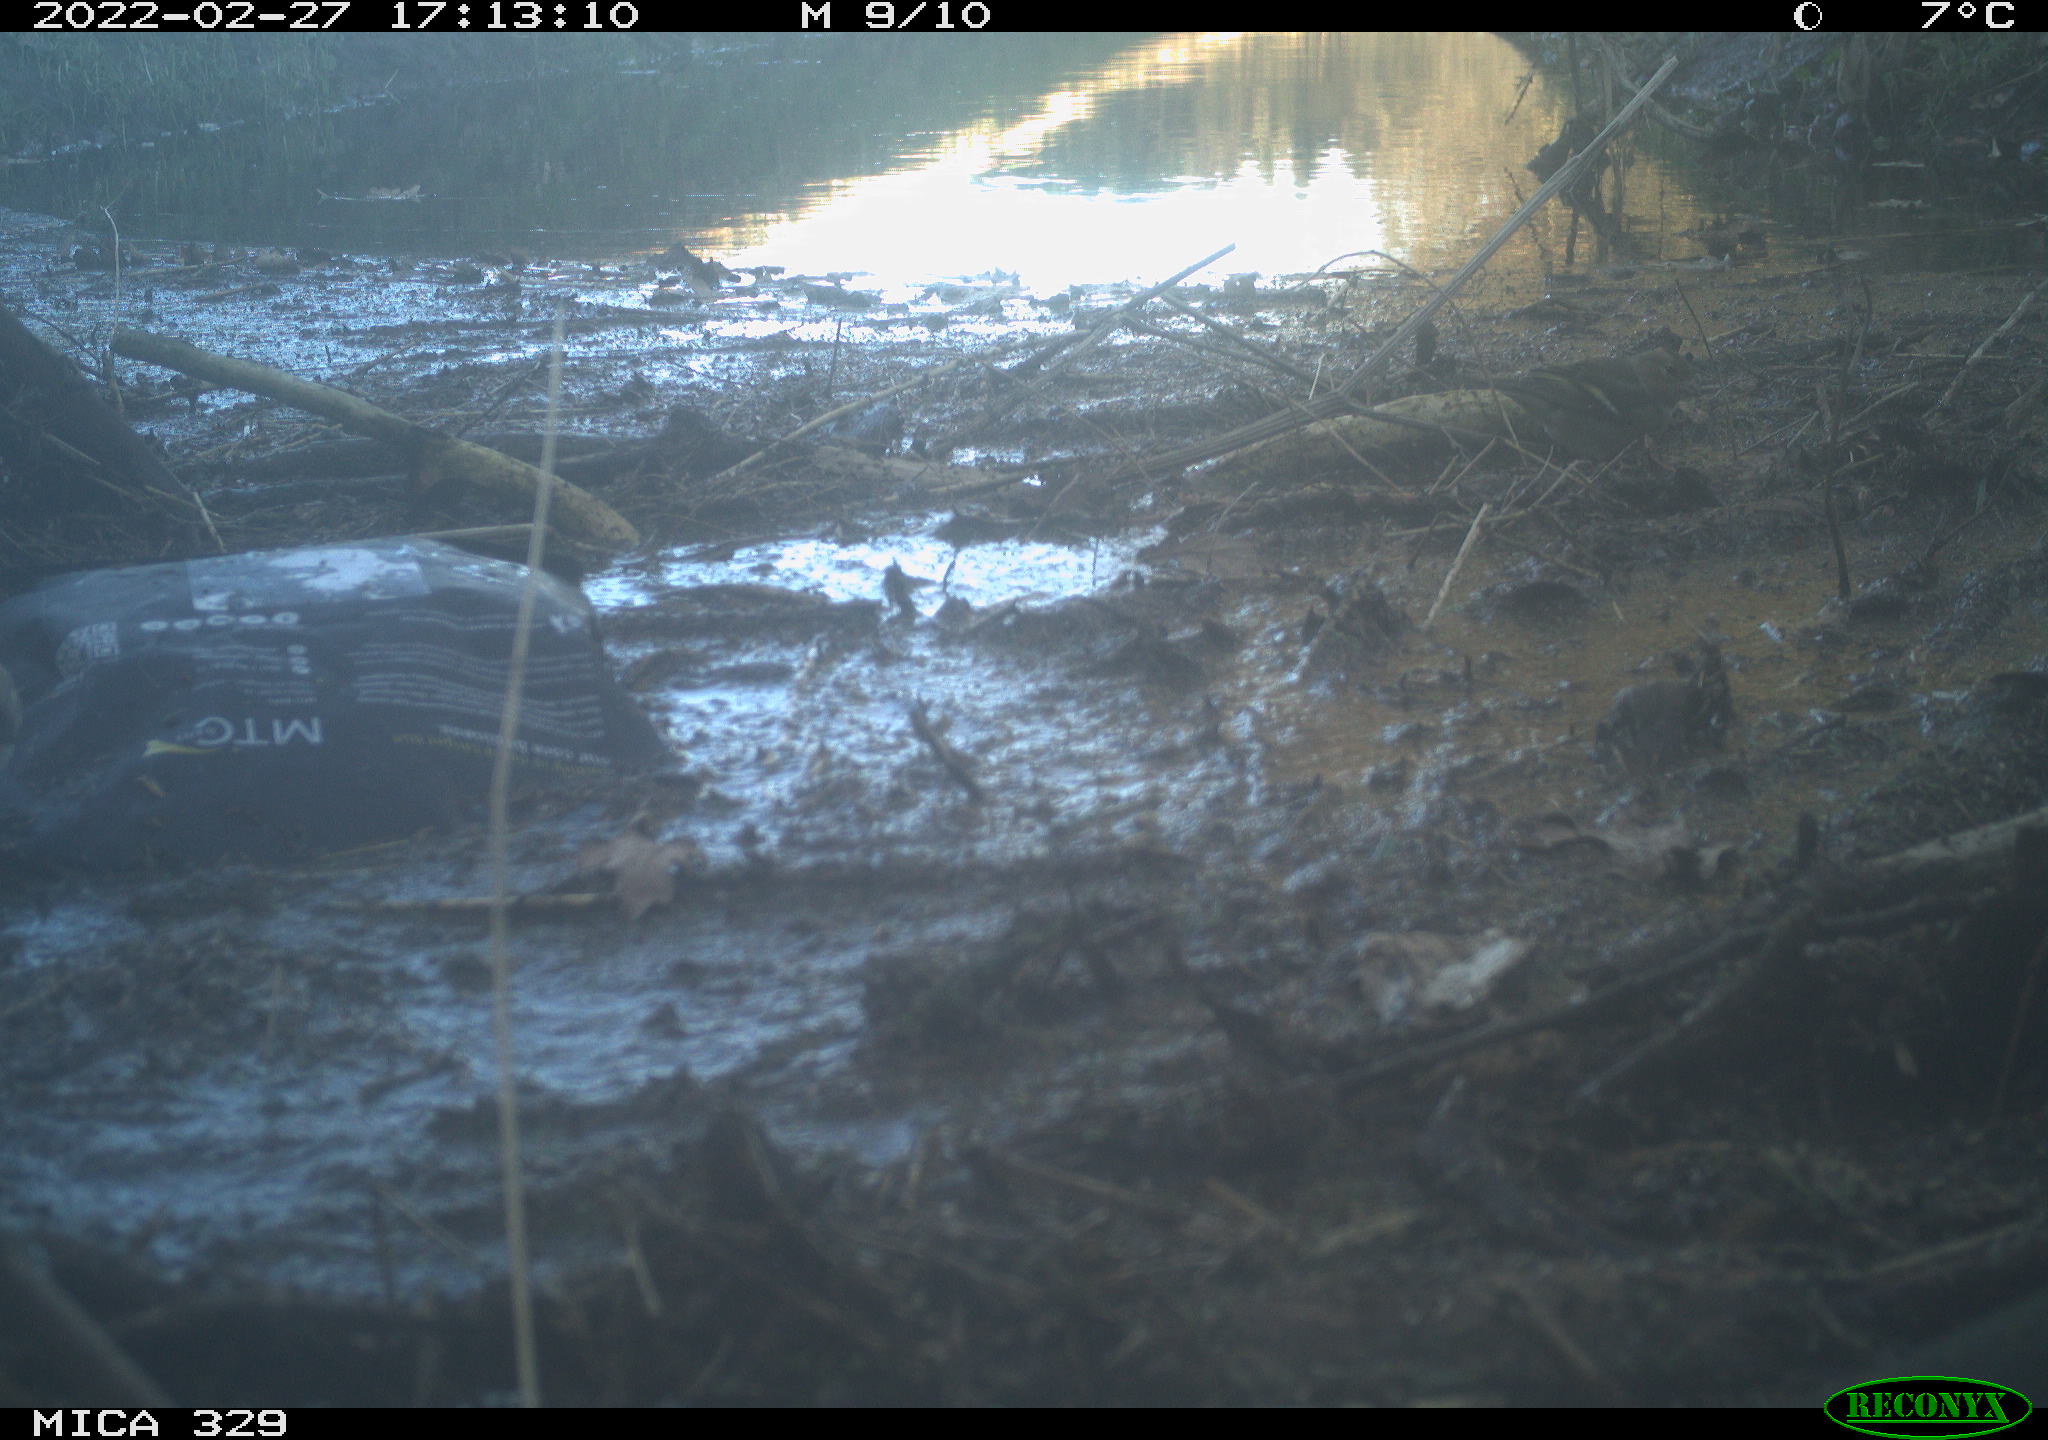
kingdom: Animalia
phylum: Chordata
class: Aves
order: Passeriformes
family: Muscicapidae
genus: Erithacus
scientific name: Erithacus rubecula
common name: European robin
